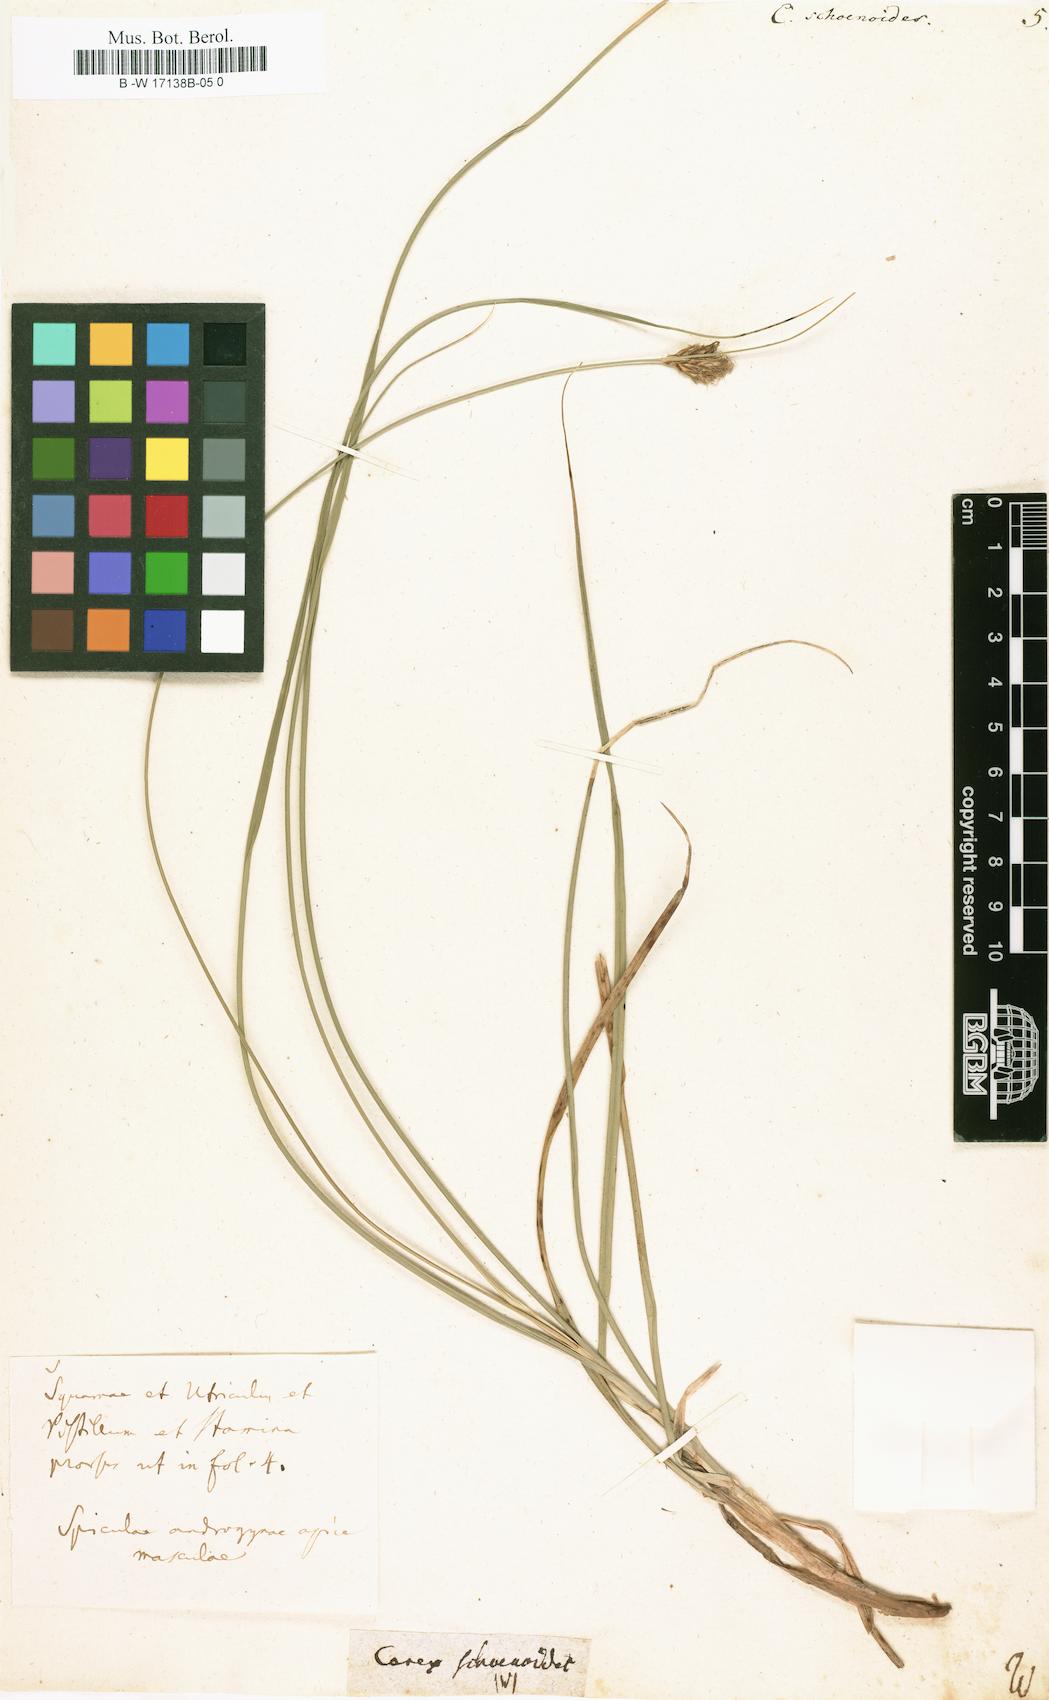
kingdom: Plantae
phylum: Tracheophyta
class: Liliopsida
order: Poales
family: Cyperaceae
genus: Carex
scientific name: Carex disticha
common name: Brown sedge
